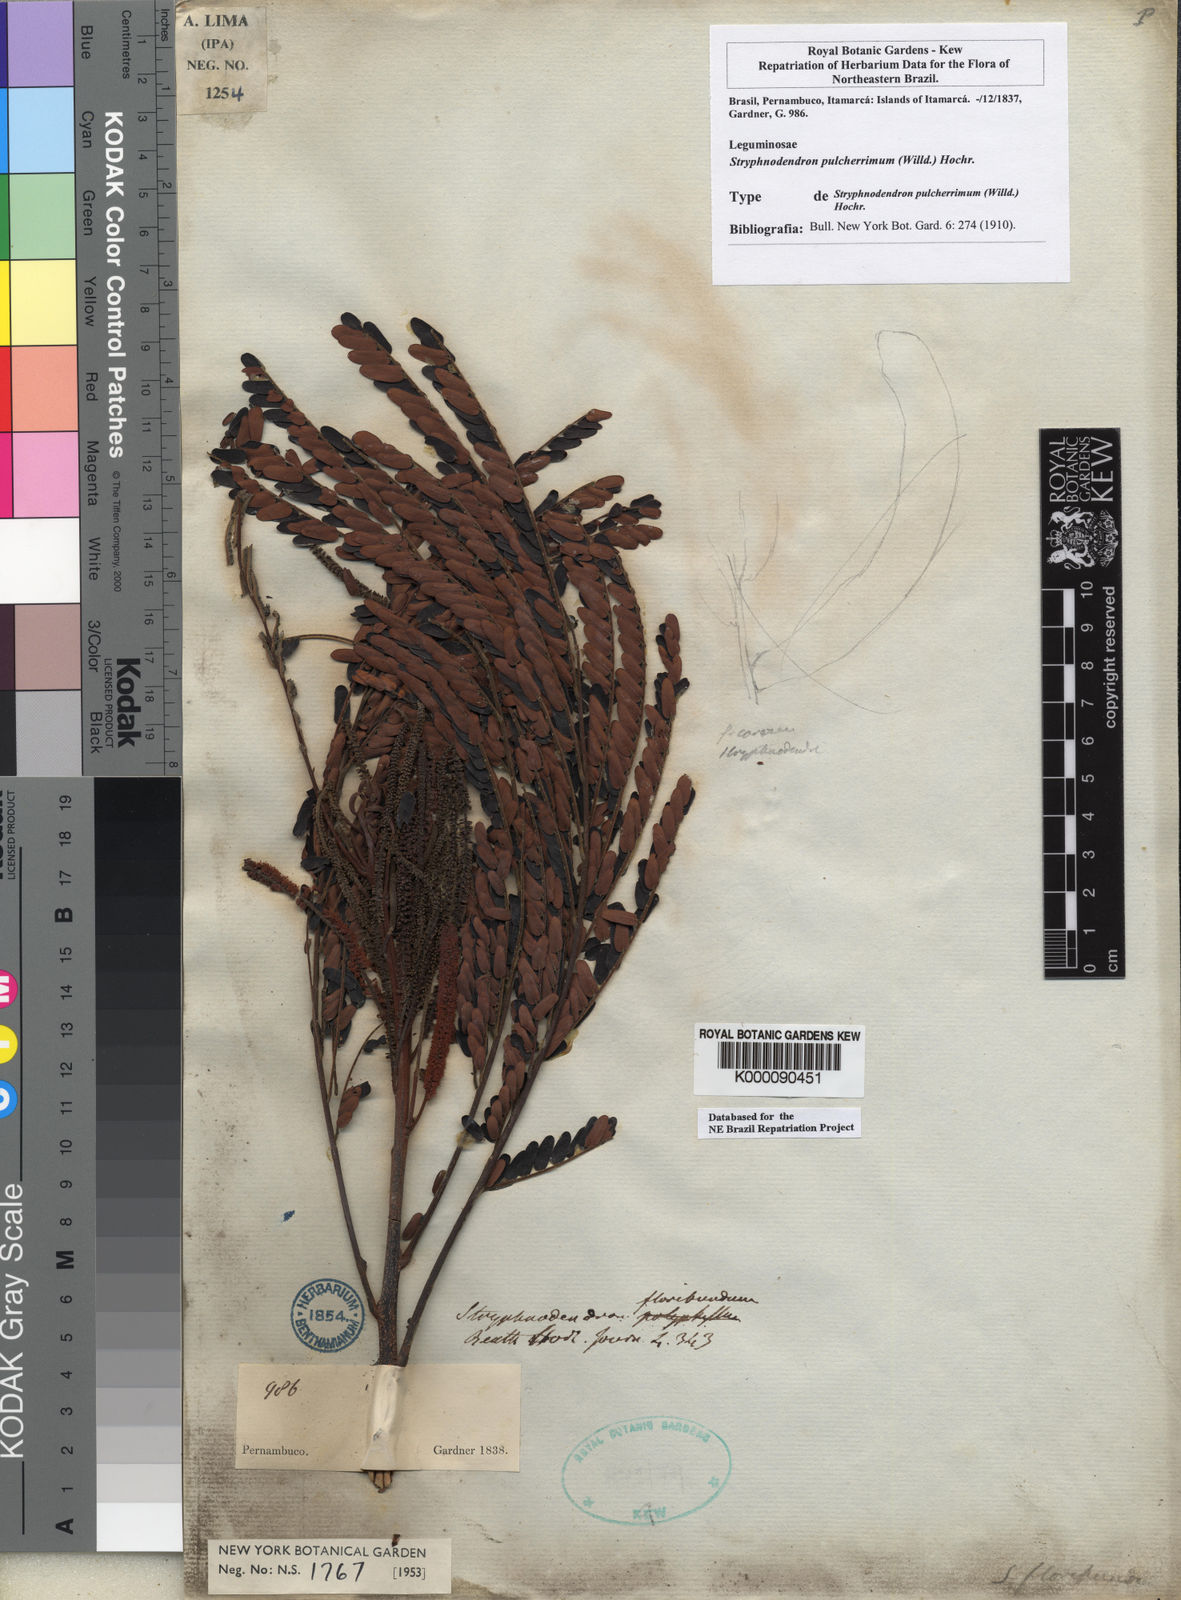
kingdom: Plantae
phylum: Tracheophyta
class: Magnoliopsida
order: Fabales
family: Fabaceae
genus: Stryphnodendron
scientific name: Stryphnodendron pulcherrimum
